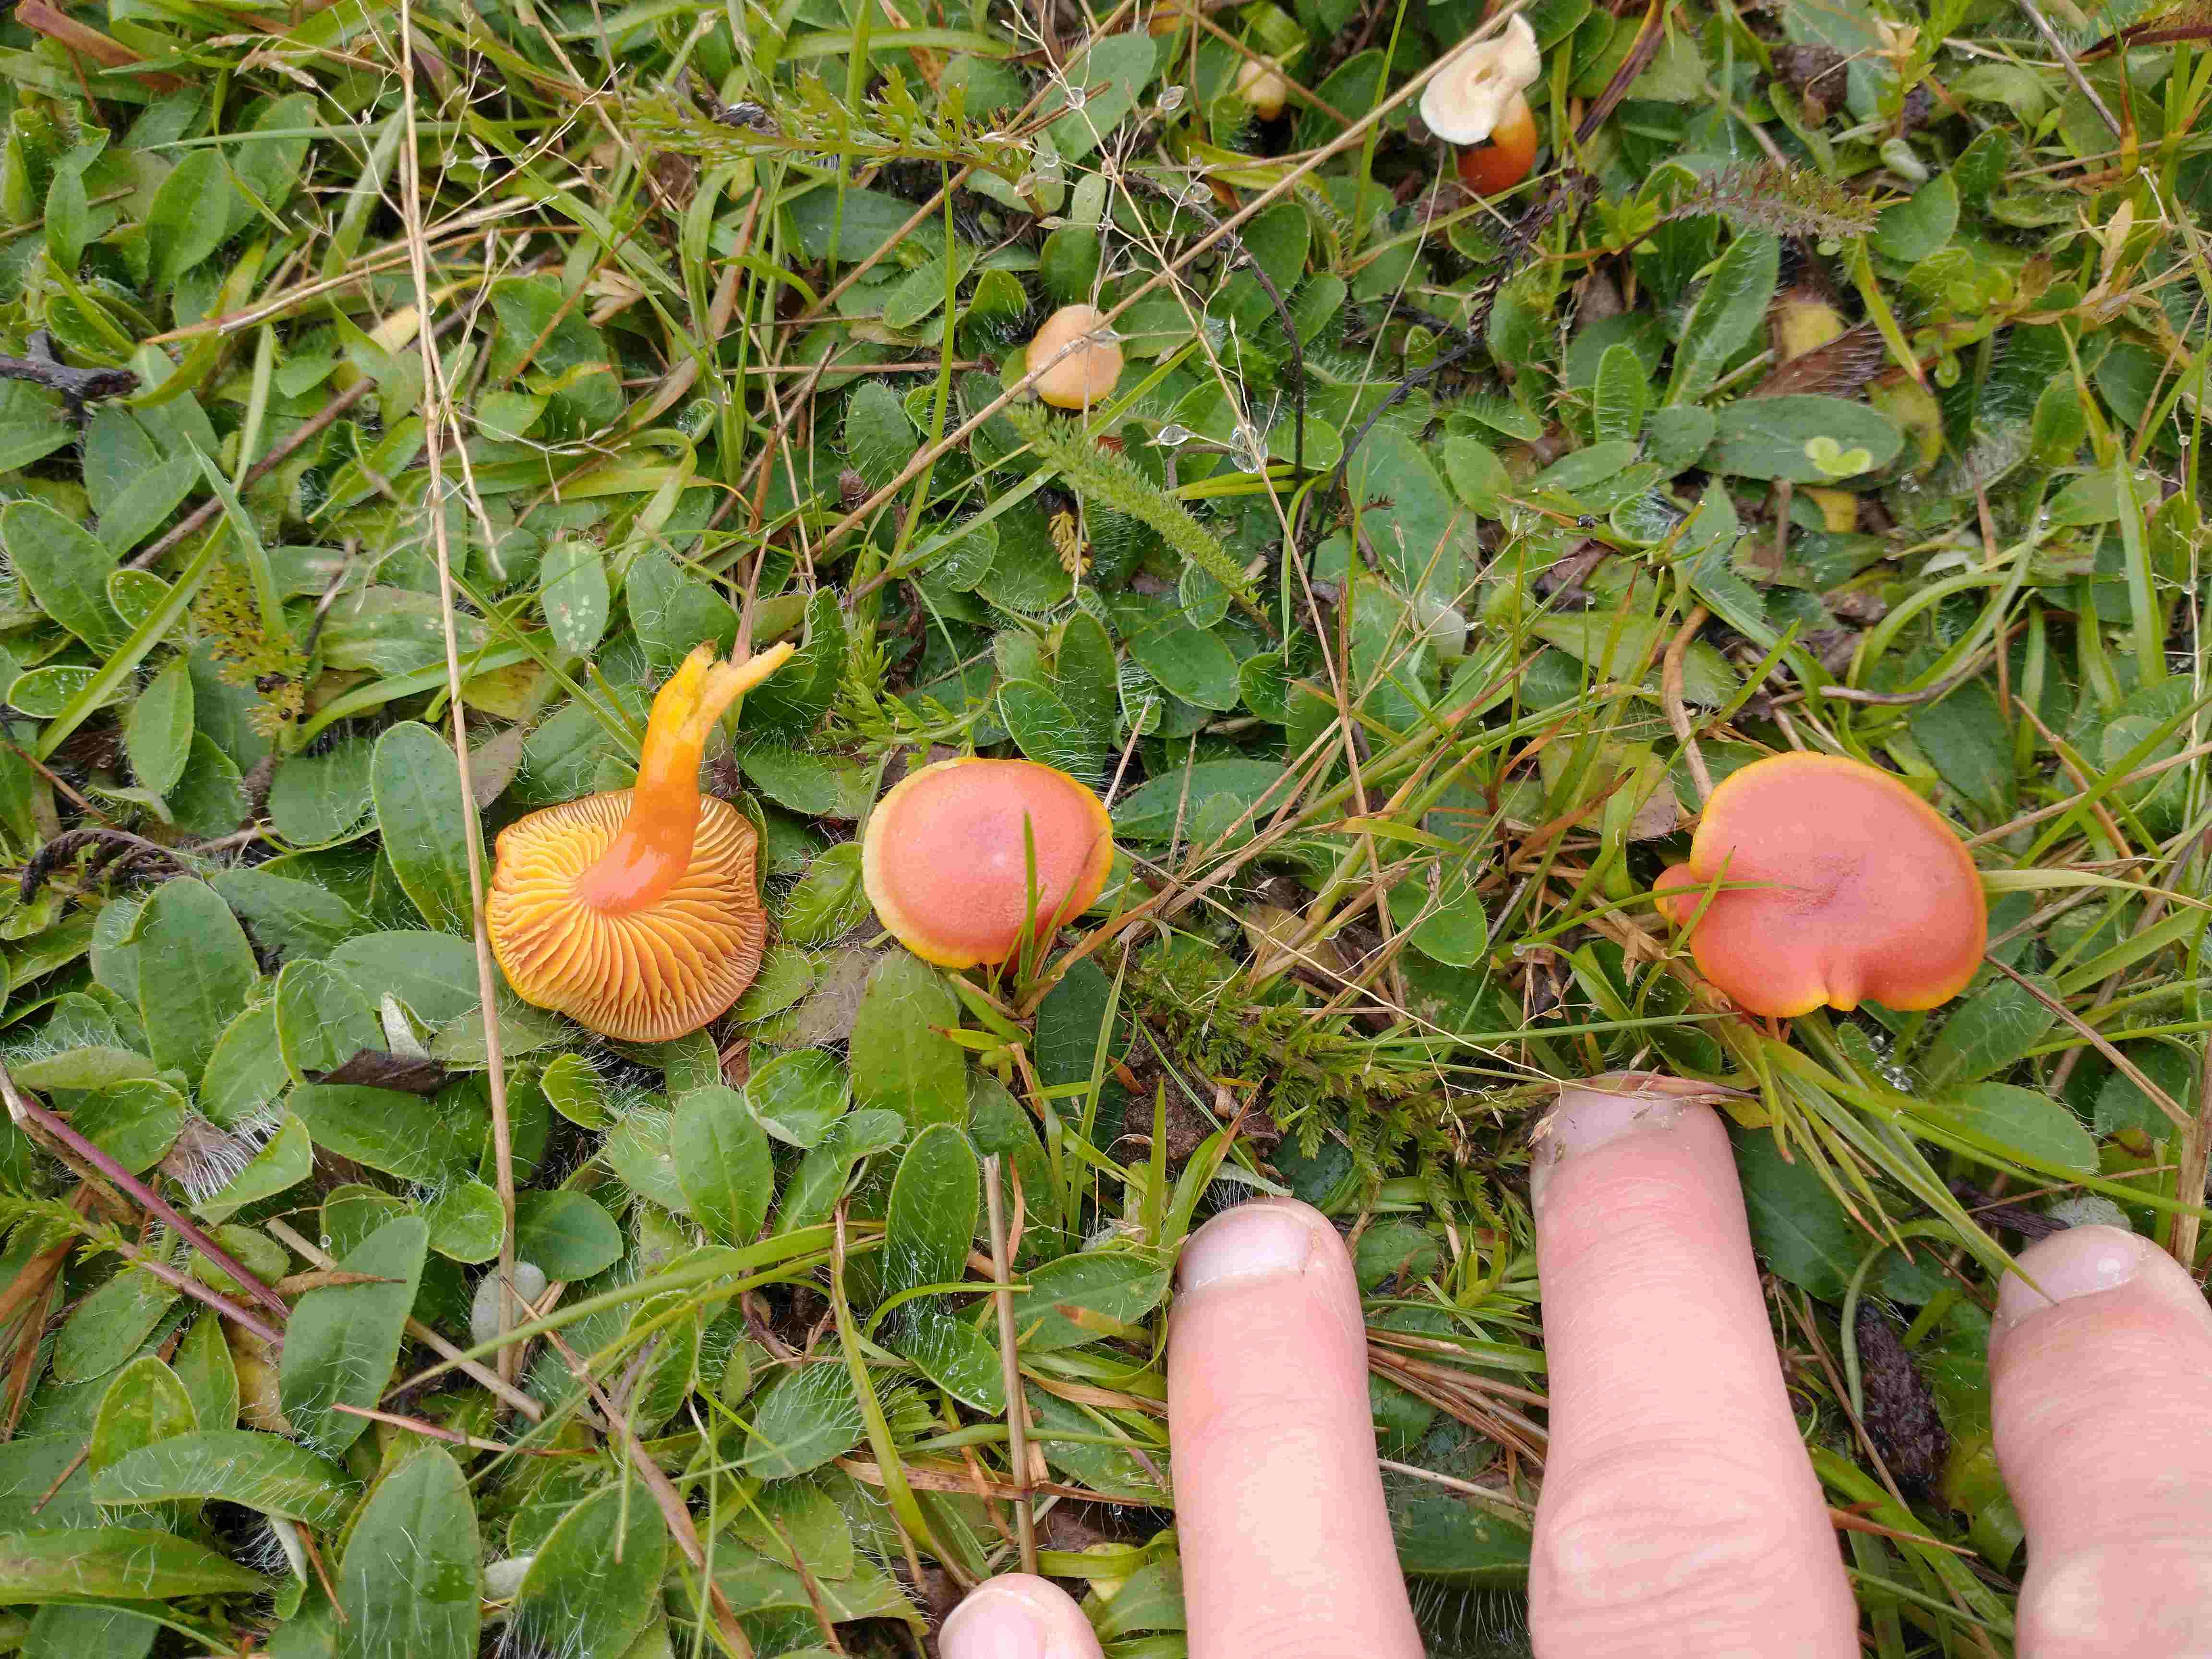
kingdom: Fungi
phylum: Basidiomycota
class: Agaricomycetes
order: Agaricales
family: Hygrophoraceae
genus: Hygrocybe
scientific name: Hygrocybe miniata
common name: mønje-vokshat
